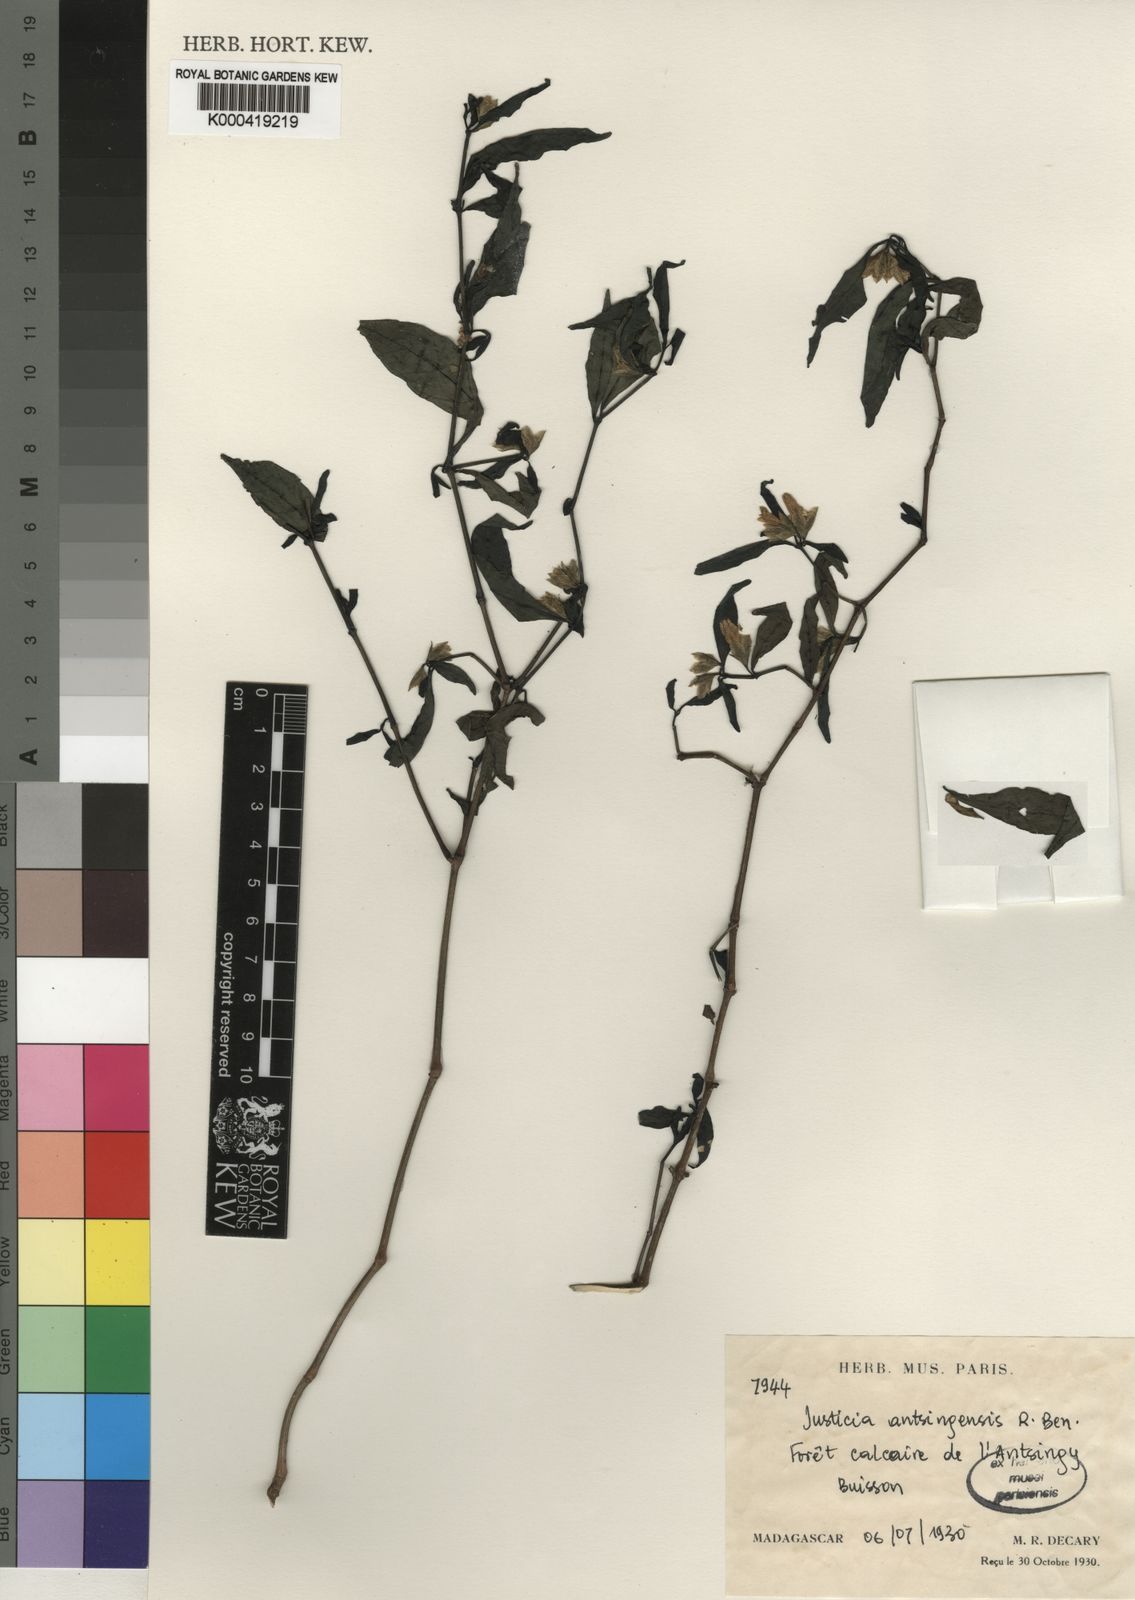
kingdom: Plantae
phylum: Tracheophyta
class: Magnoliopsida
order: Lamiales
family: Acanthaceae
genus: Justicia
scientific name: Justicia antsingensis
